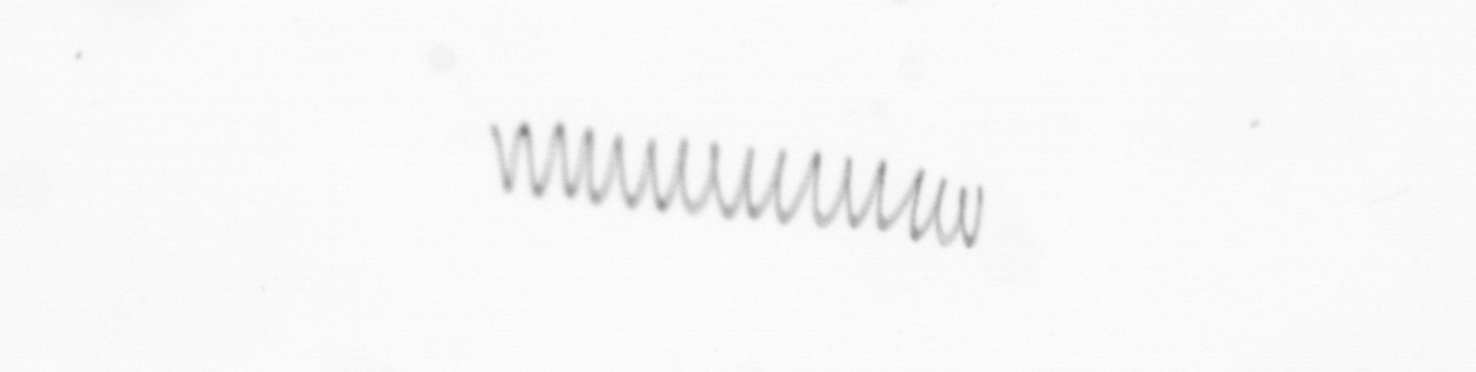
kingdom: Chromista
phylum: Ochrophyta
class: Bacillariophyceae
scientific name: Bacillariophyceae
